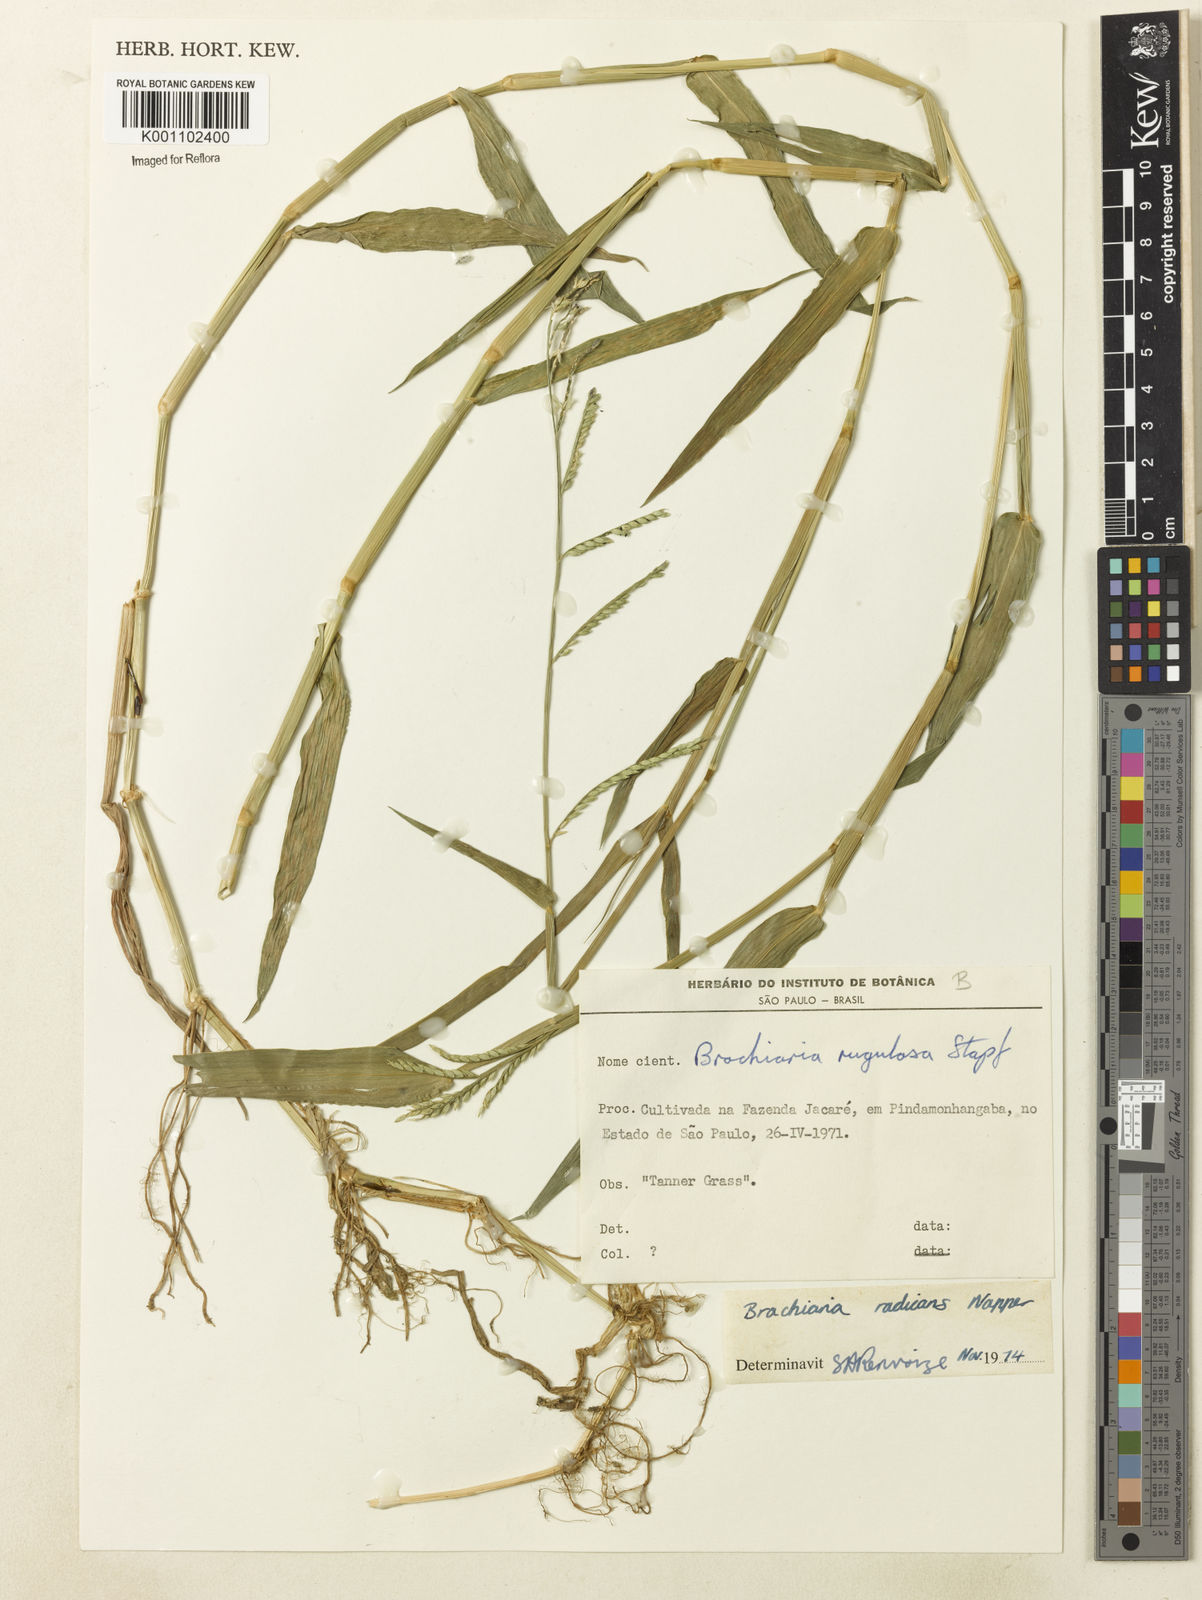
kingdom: Plantae
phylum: Tracheophyta
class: Liliopsida
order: Poales
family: Poaceae
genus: Urochloa
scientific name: Urochloa arrecta
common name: African signalgrass
